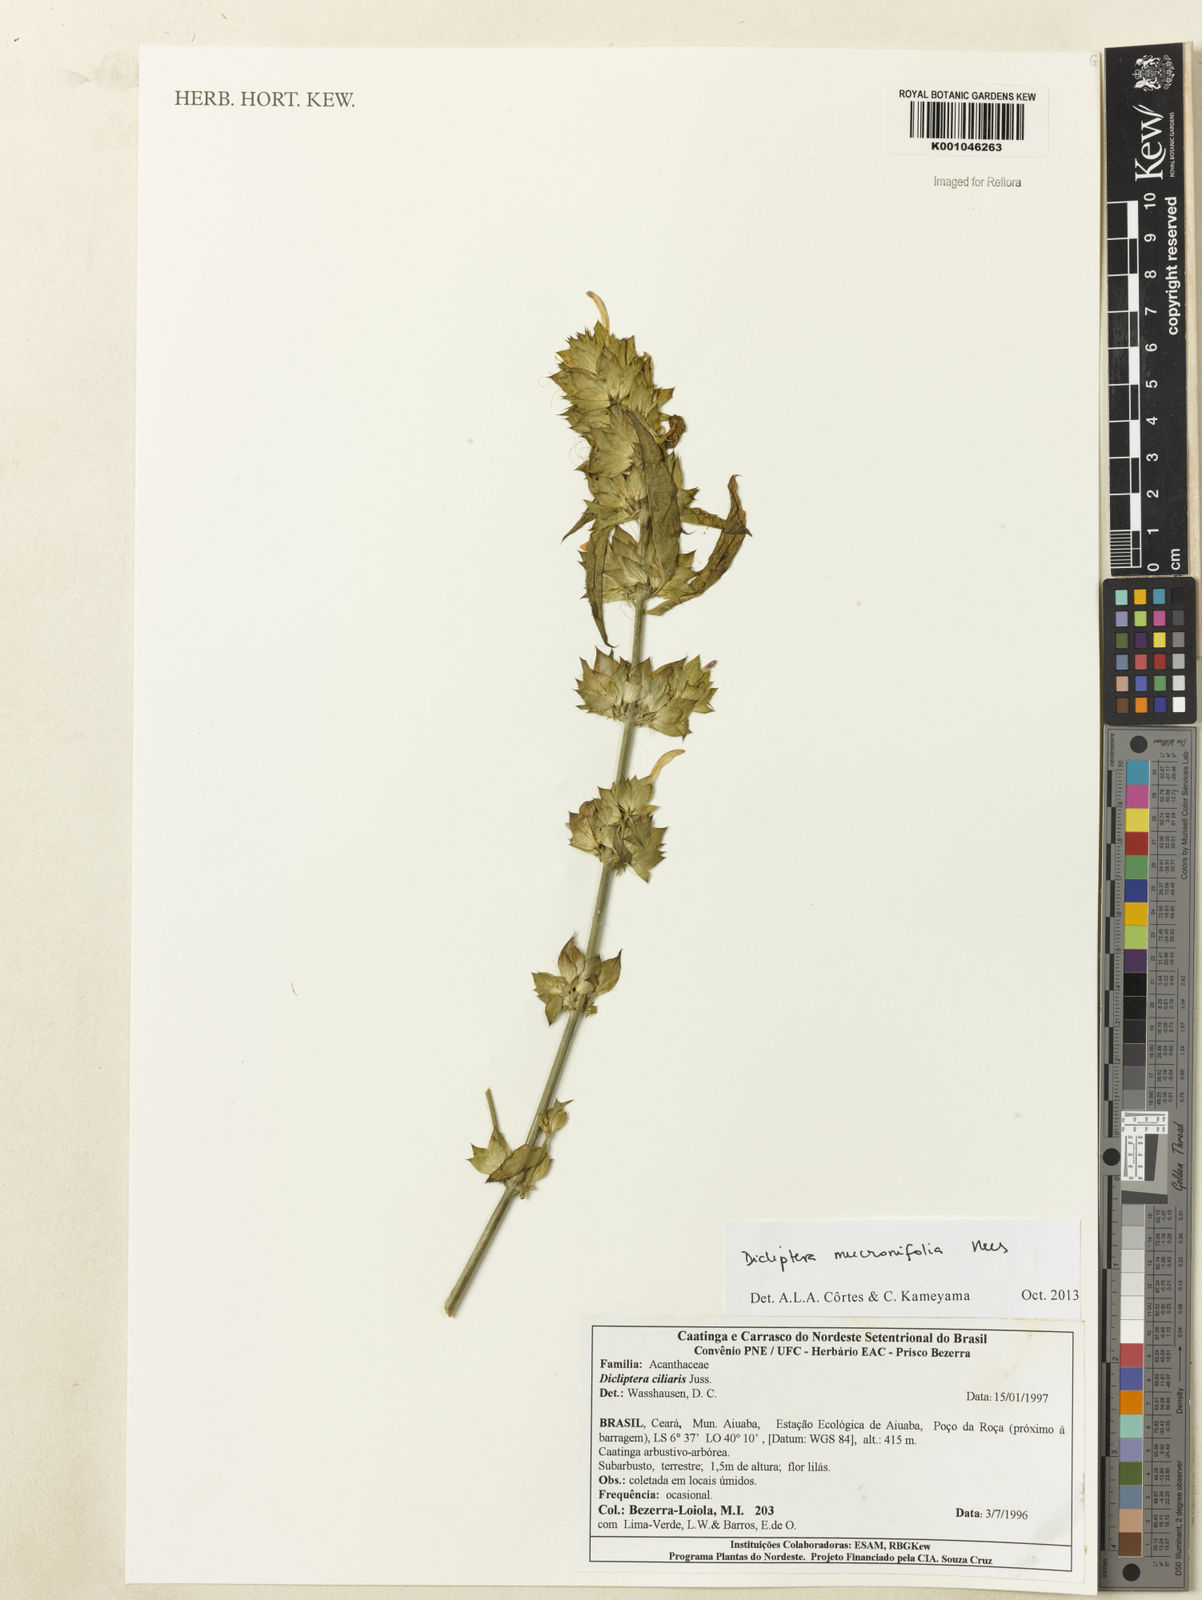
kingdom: Plantae
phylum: Tracheophyta
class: Magnoliopsida
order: Lamiales
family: Acanthaceae
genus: Dicliptera
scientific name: Dicliptera mucronifolia
